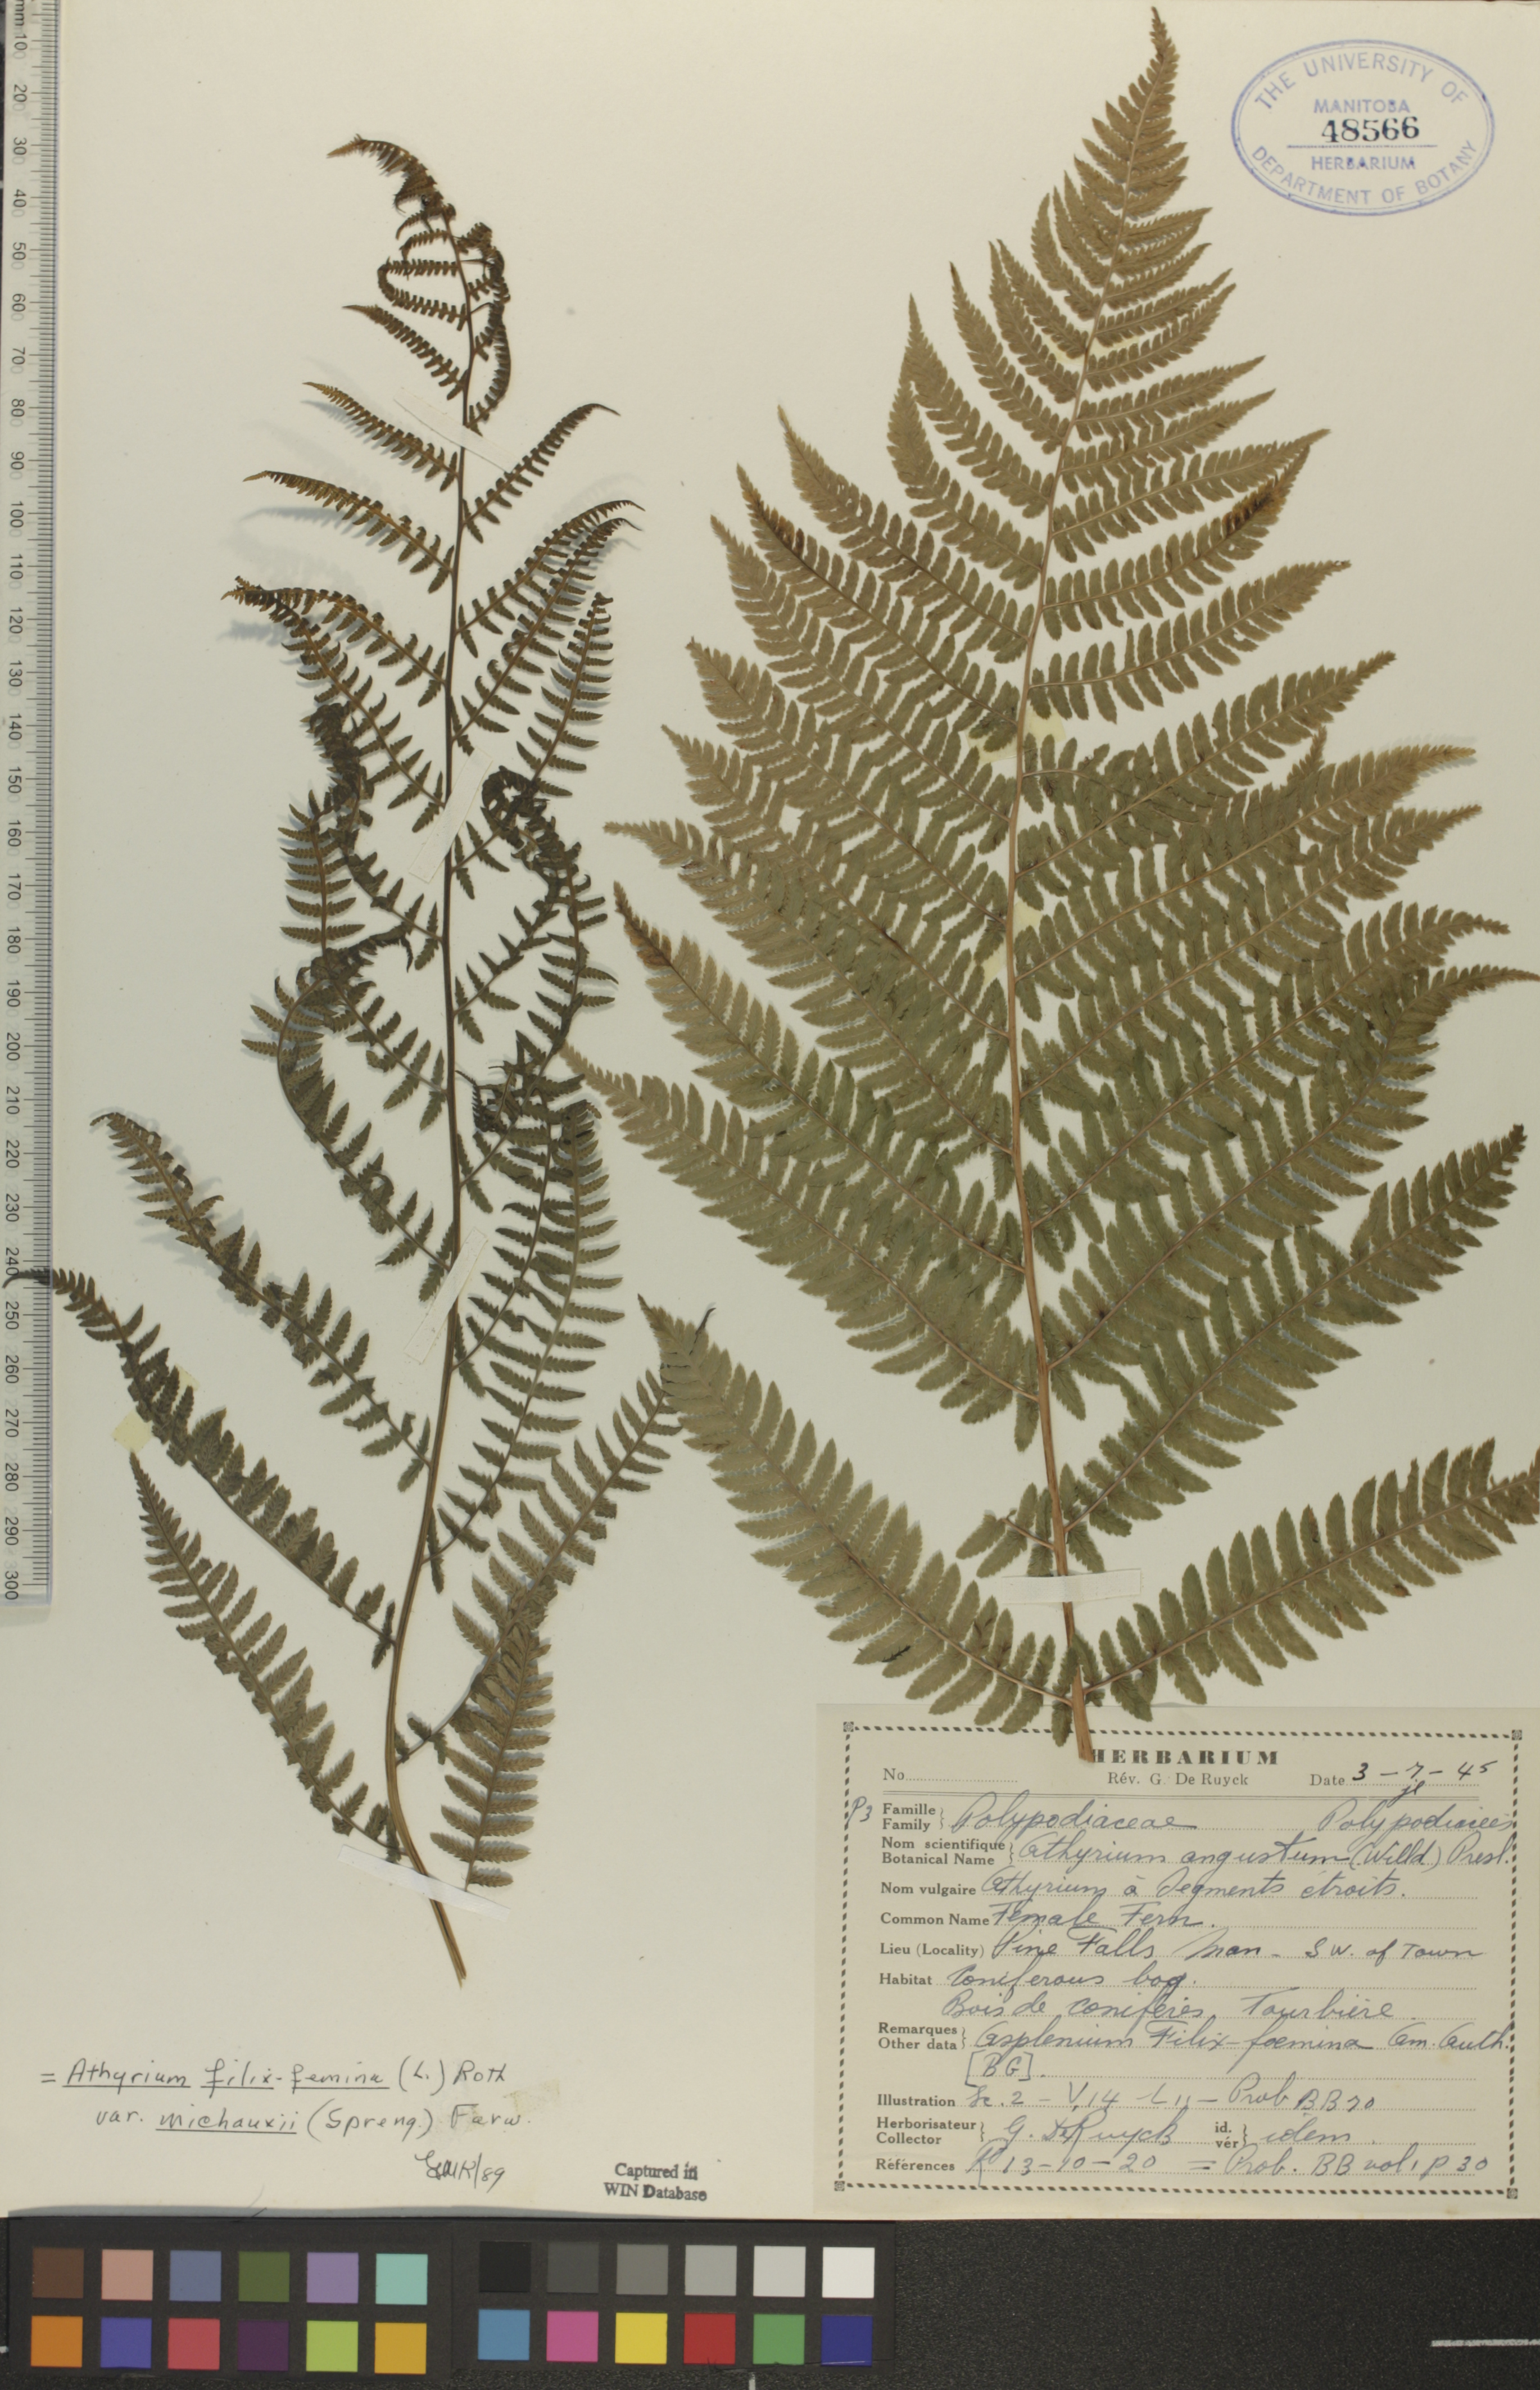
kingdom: Plantae
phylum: Tracheophyta
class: Polypodiopsida
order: Polypodiales
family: Athyriaceae
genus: Athyrium
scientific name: Athyrium angustum
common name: Northern lady fern
